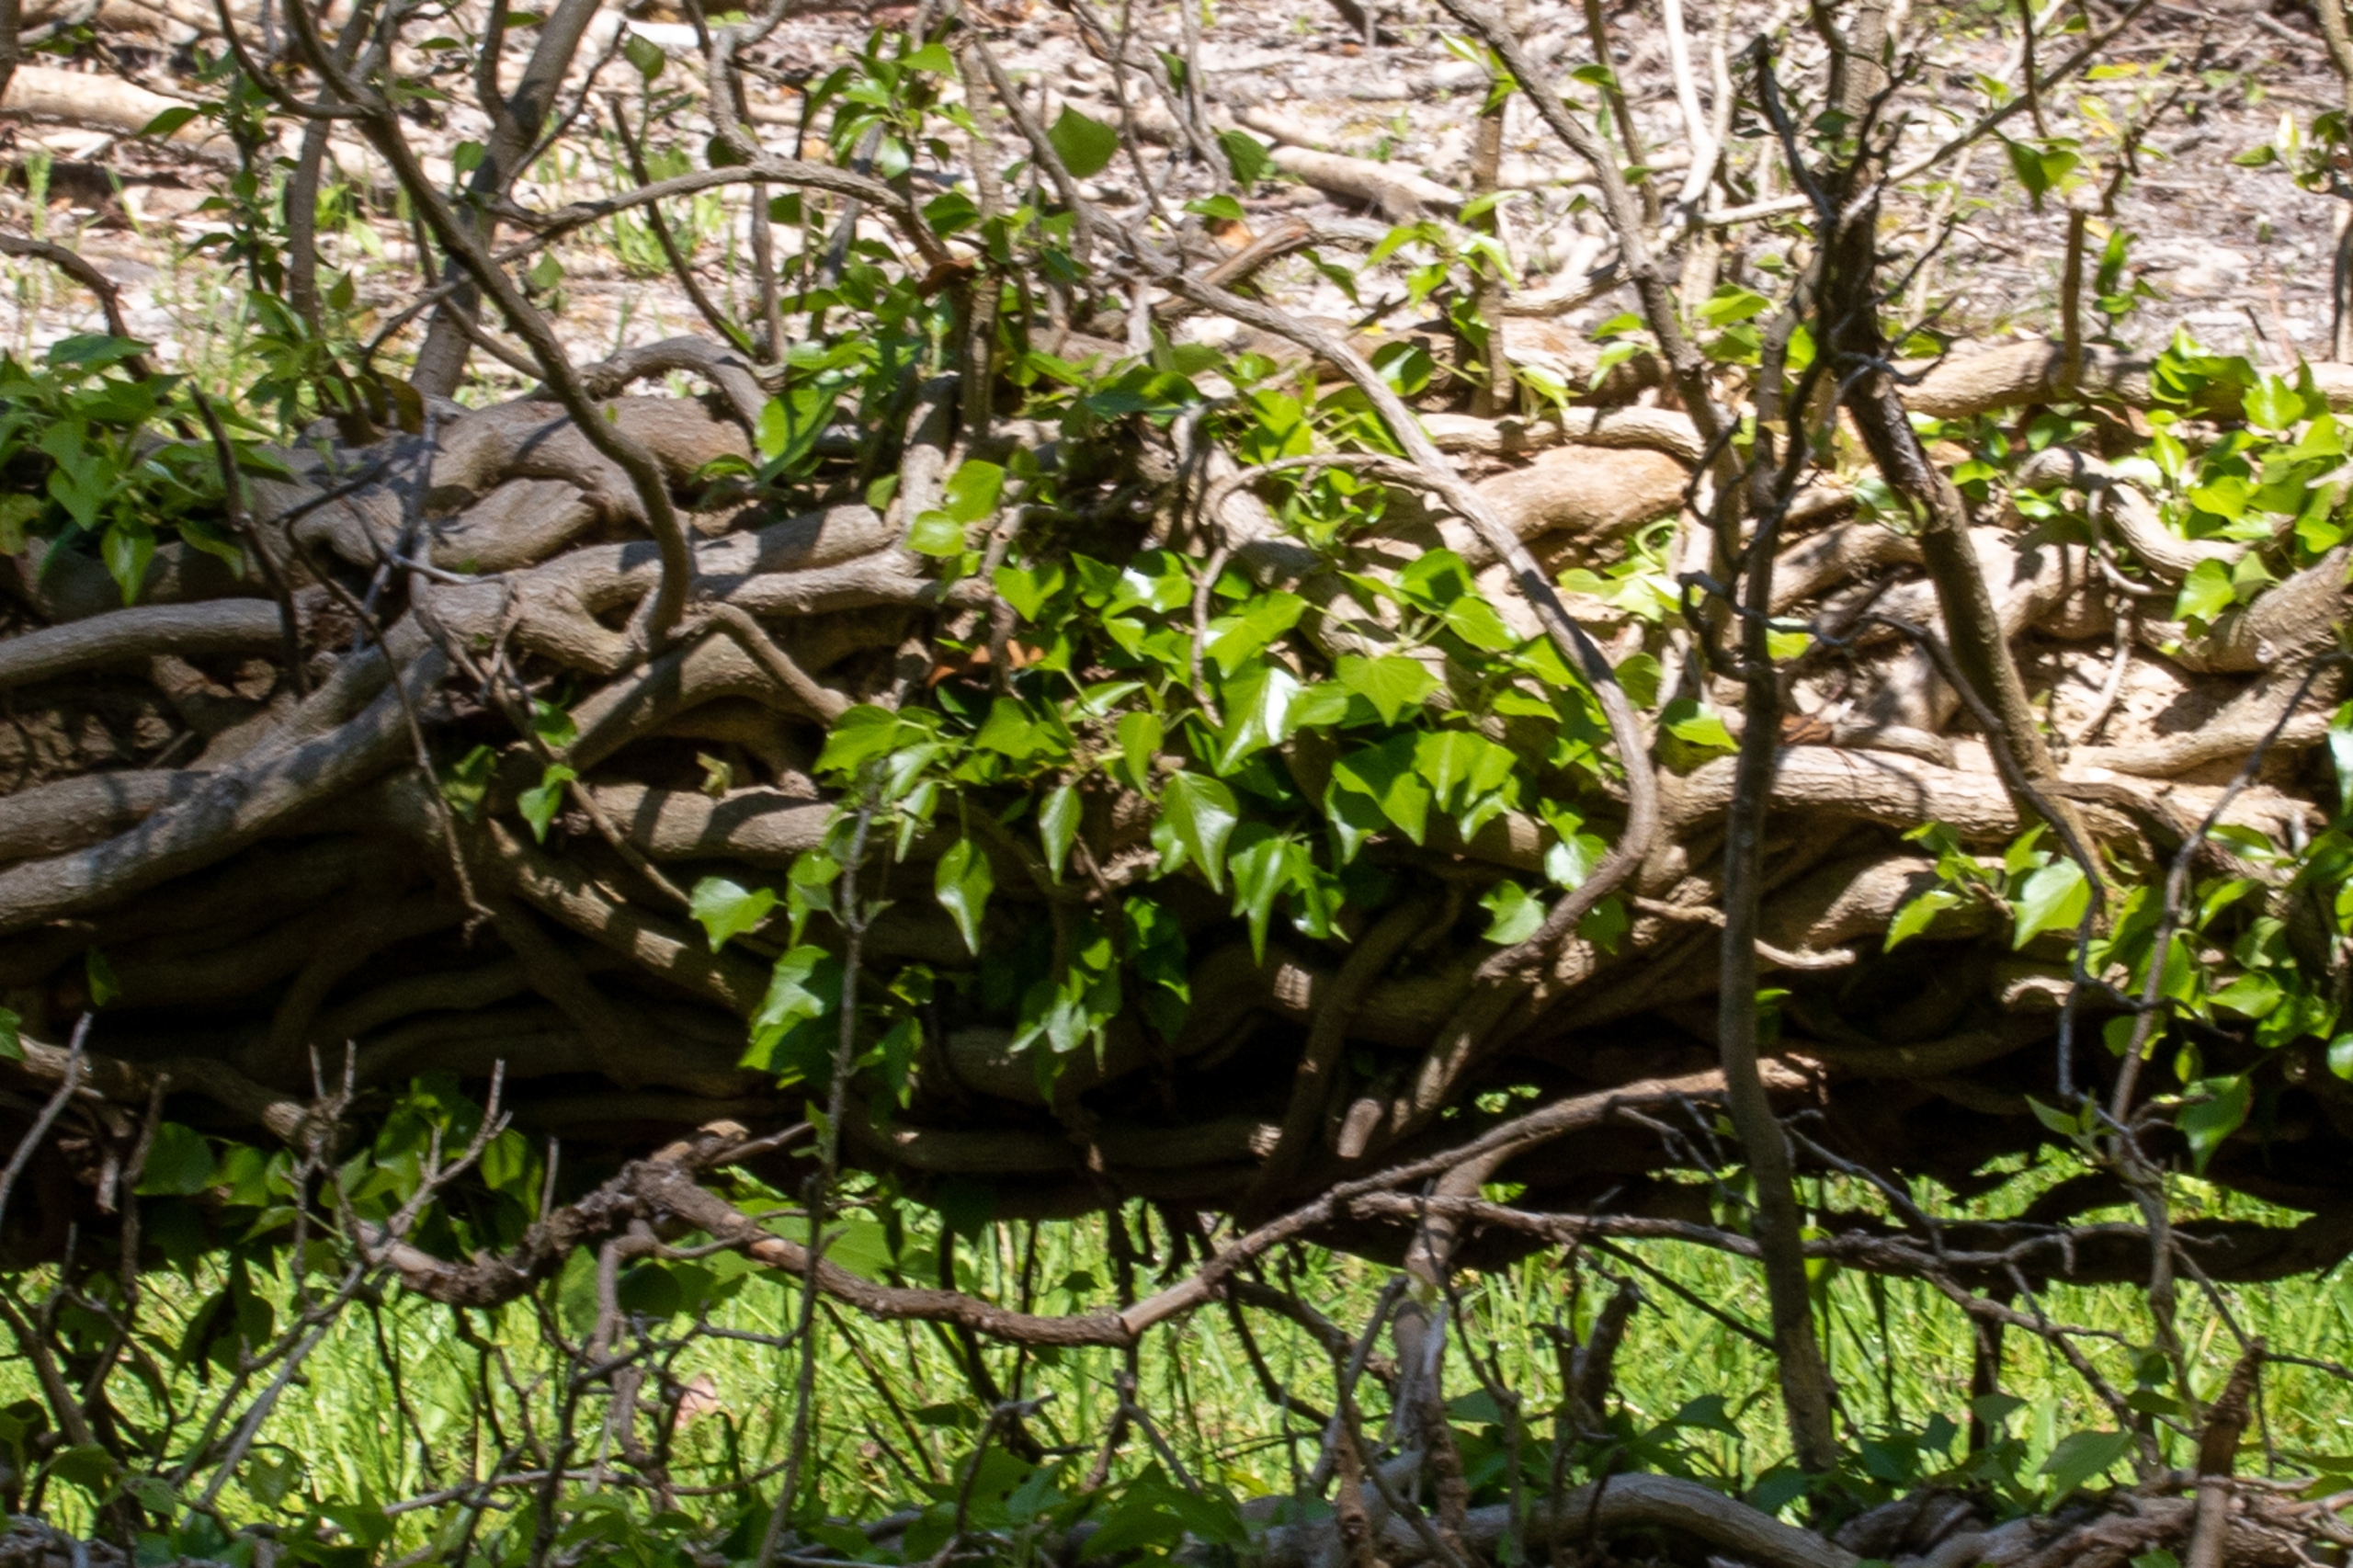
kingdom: Plantae
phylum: Tracheophyta
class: Magnoliopsida
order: Apiales
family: Araliaceae
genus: Hedera
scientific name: Hedera helix
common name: Vedbend
